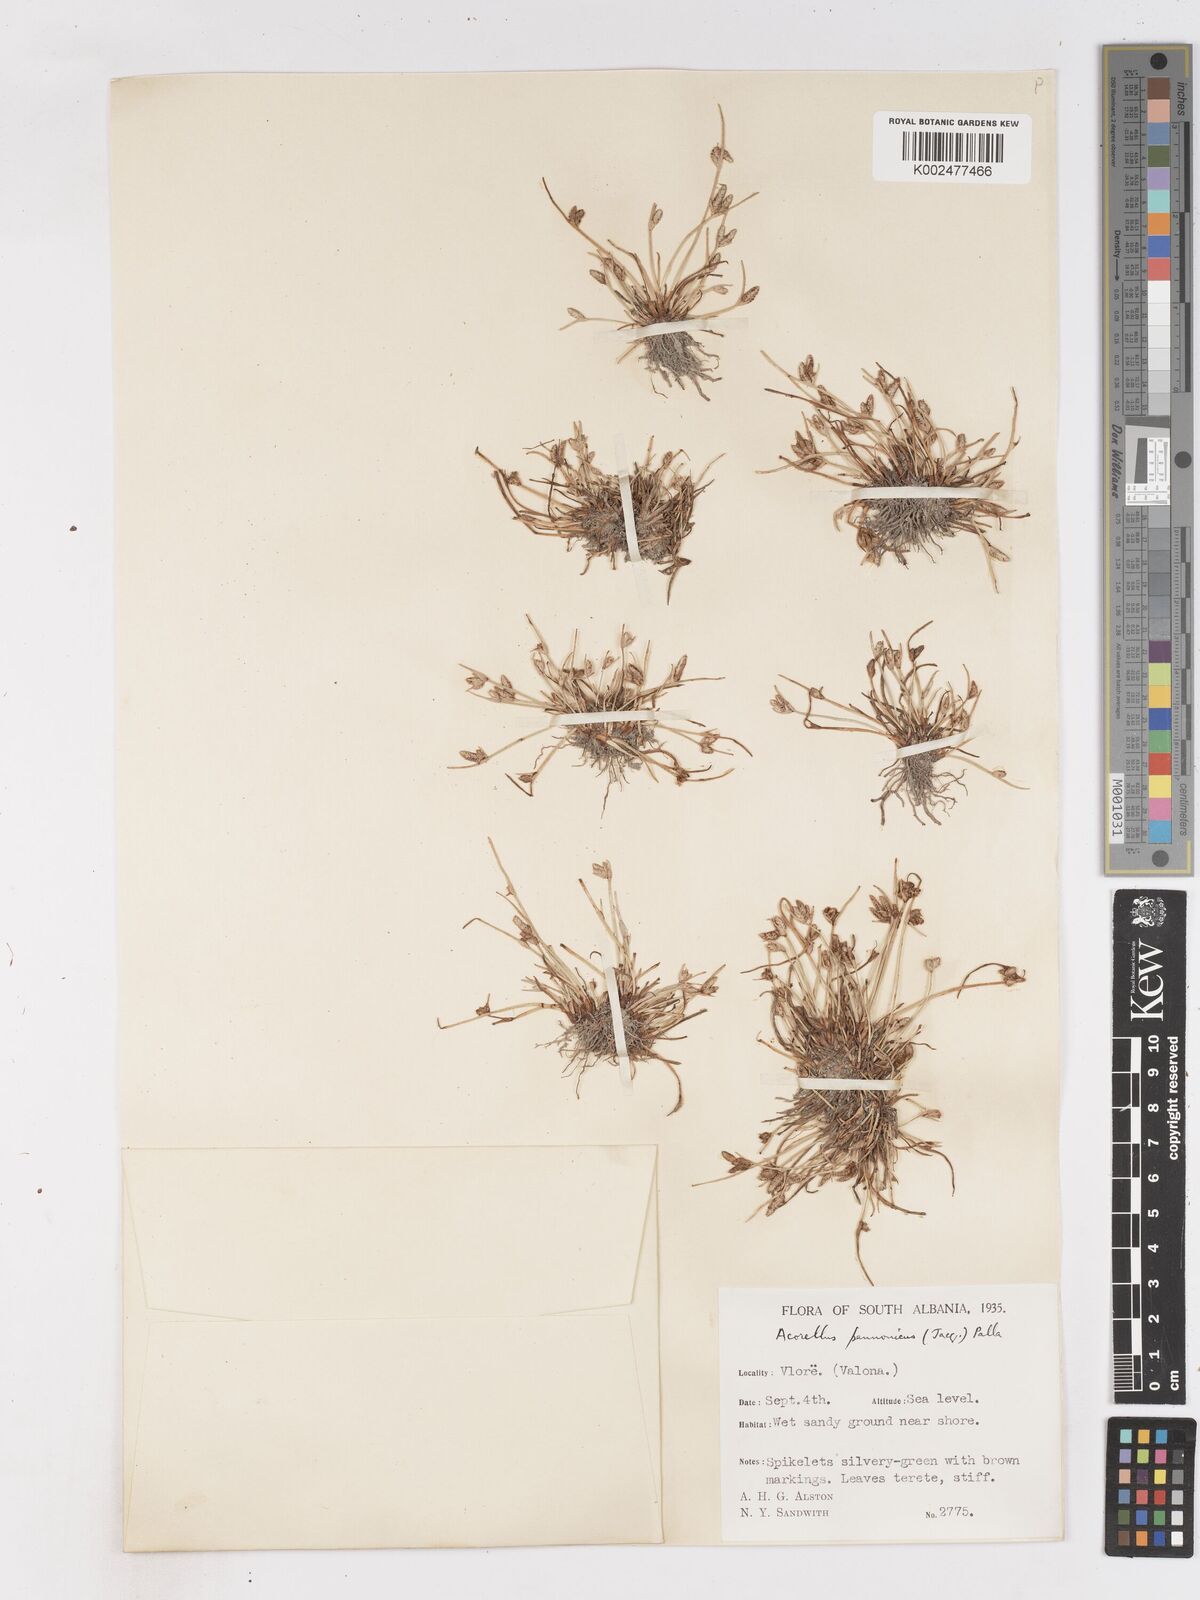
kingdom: Plantae
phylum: Tracheophyta
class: Liliopsida
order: Poales
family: Cyperaceae
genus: Cyperus
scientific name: Cyperus pannonicus
